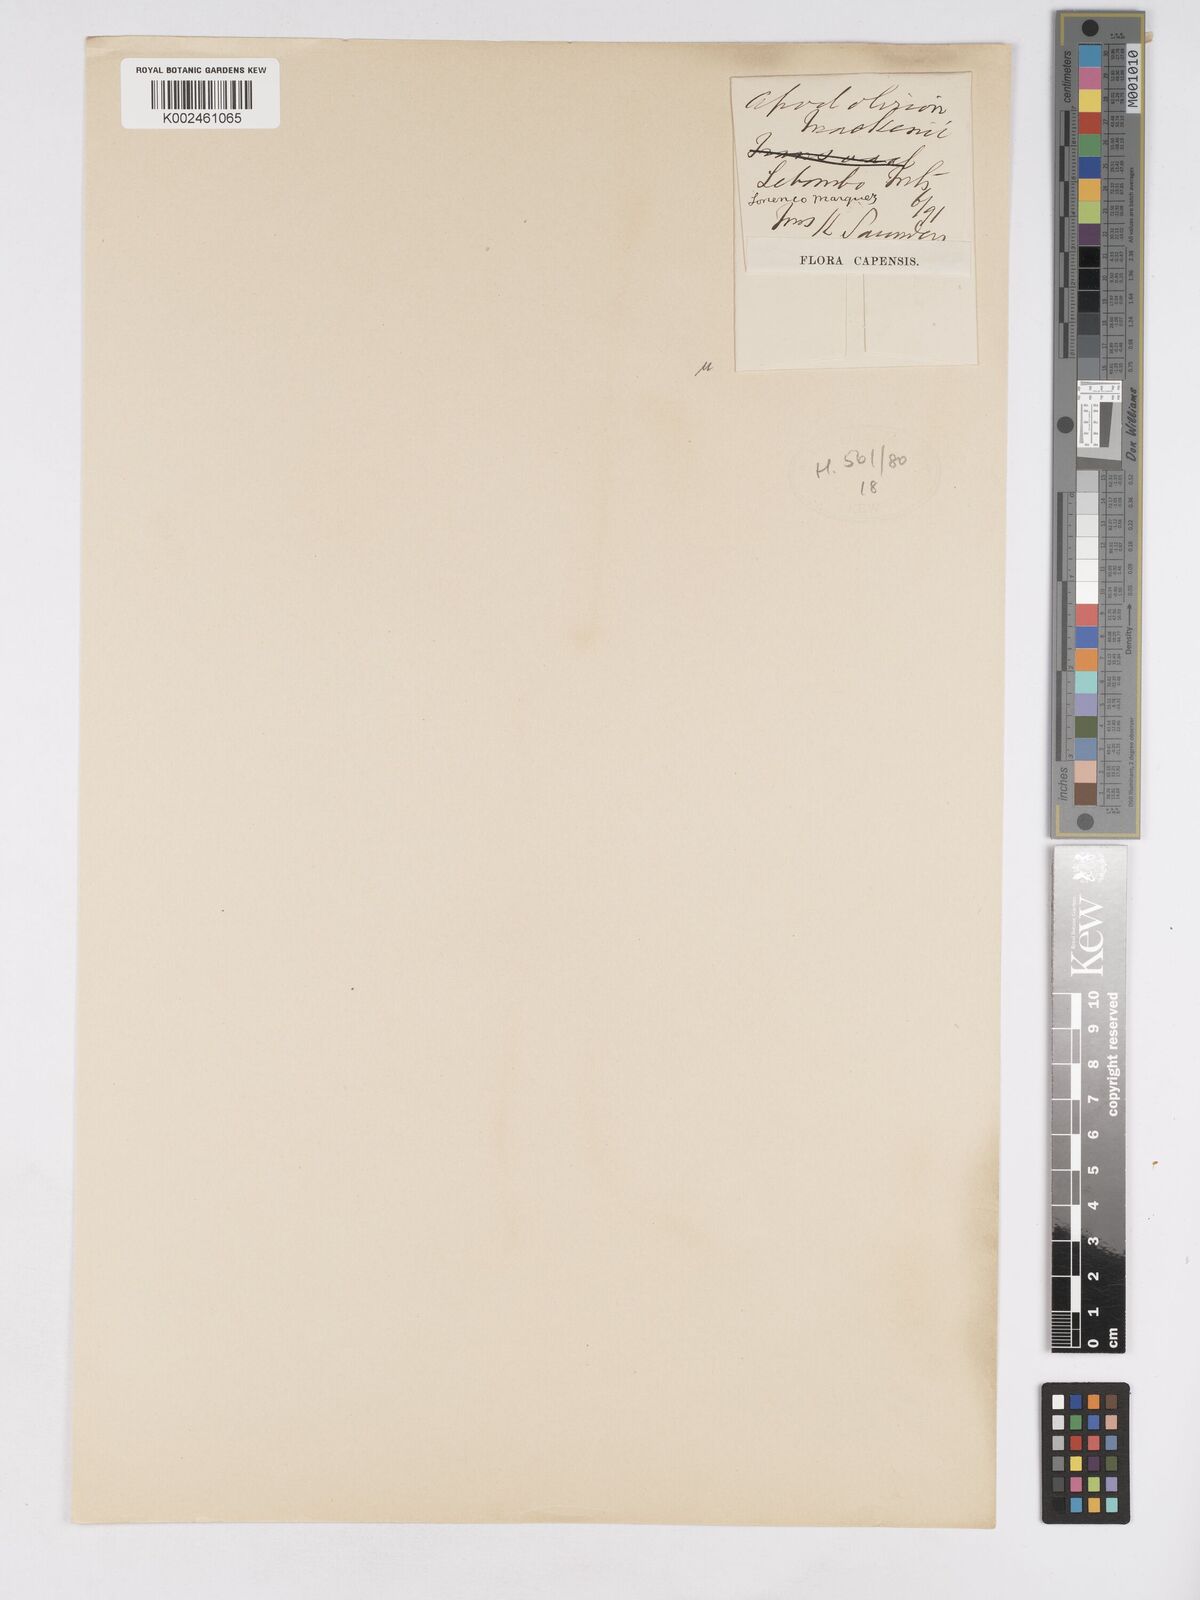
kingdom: Plantae
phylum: Tracheophyta
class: Liliopsida
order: Asparagales
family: Amaryllidaceae
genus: Apodolirion
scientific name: Apodolirion buchananii
